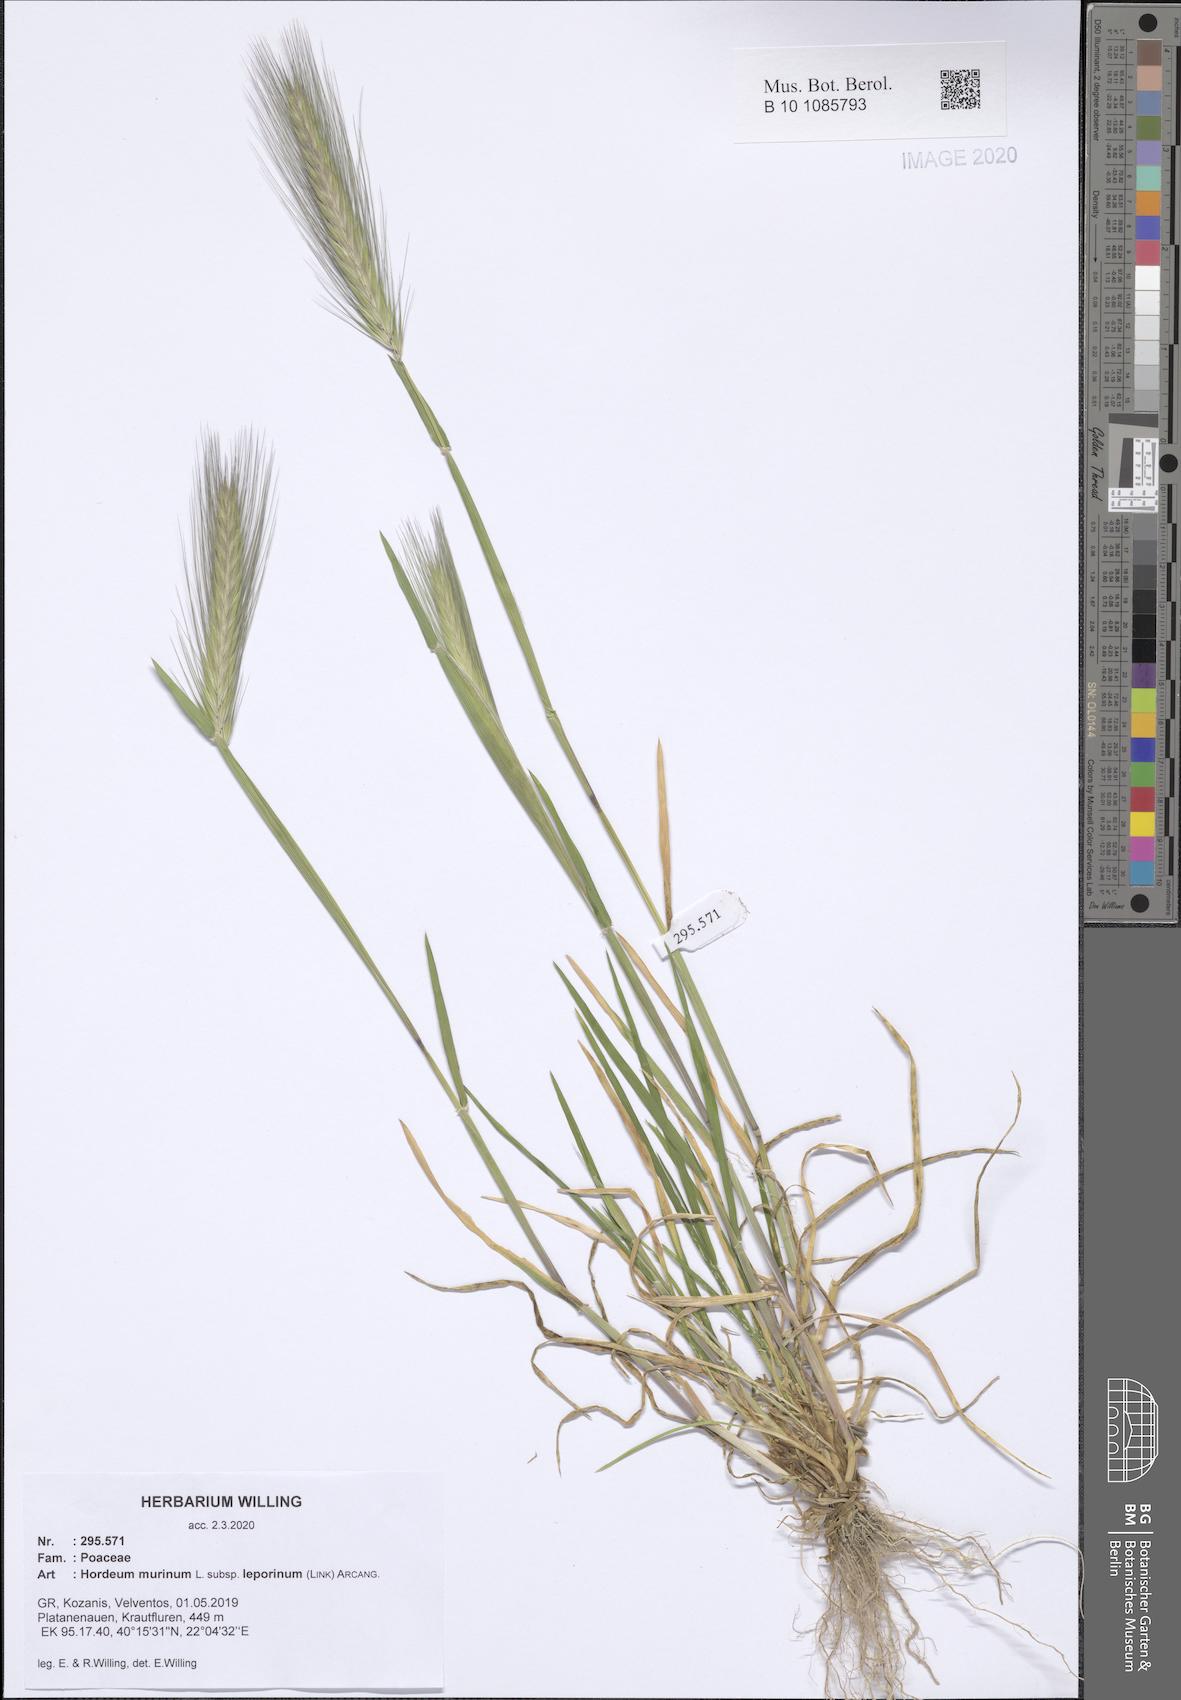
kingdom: Plantae
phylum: Tracheophyta
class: Liliopsida
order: Poales
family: Poaceae
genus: Hordeum
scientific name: Hordeum murinum
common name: Wall barley
